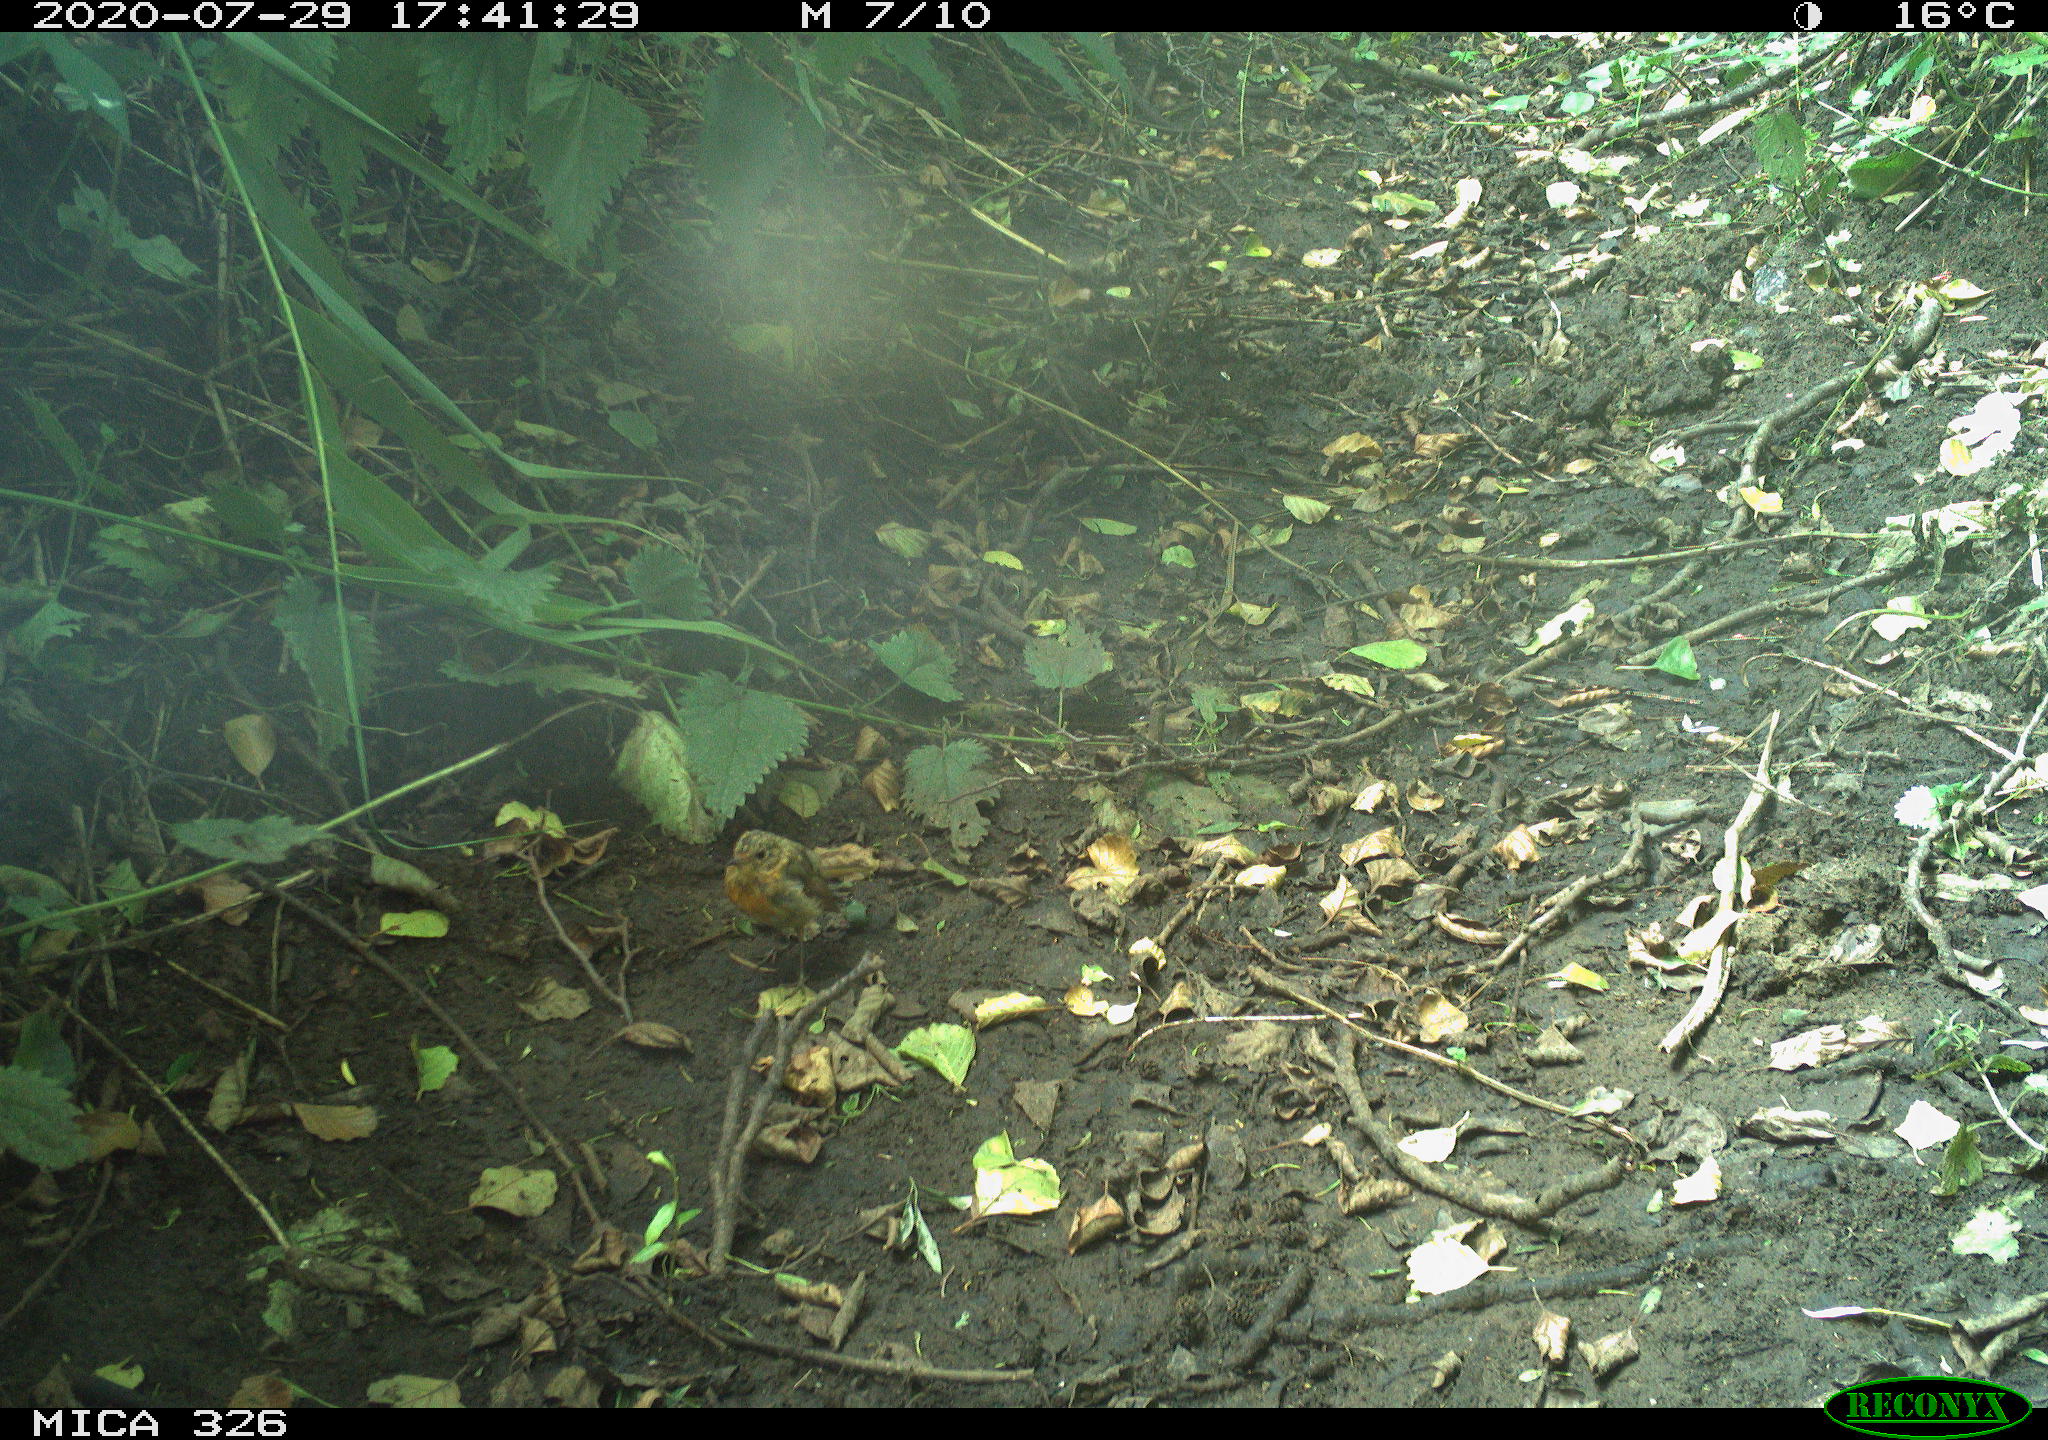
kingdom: Animalia
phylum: Chordata
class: Aves
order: Passeriformes
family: Muscicapidae
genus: Erithacus
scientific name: Erithacus rubecula
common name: European robin
